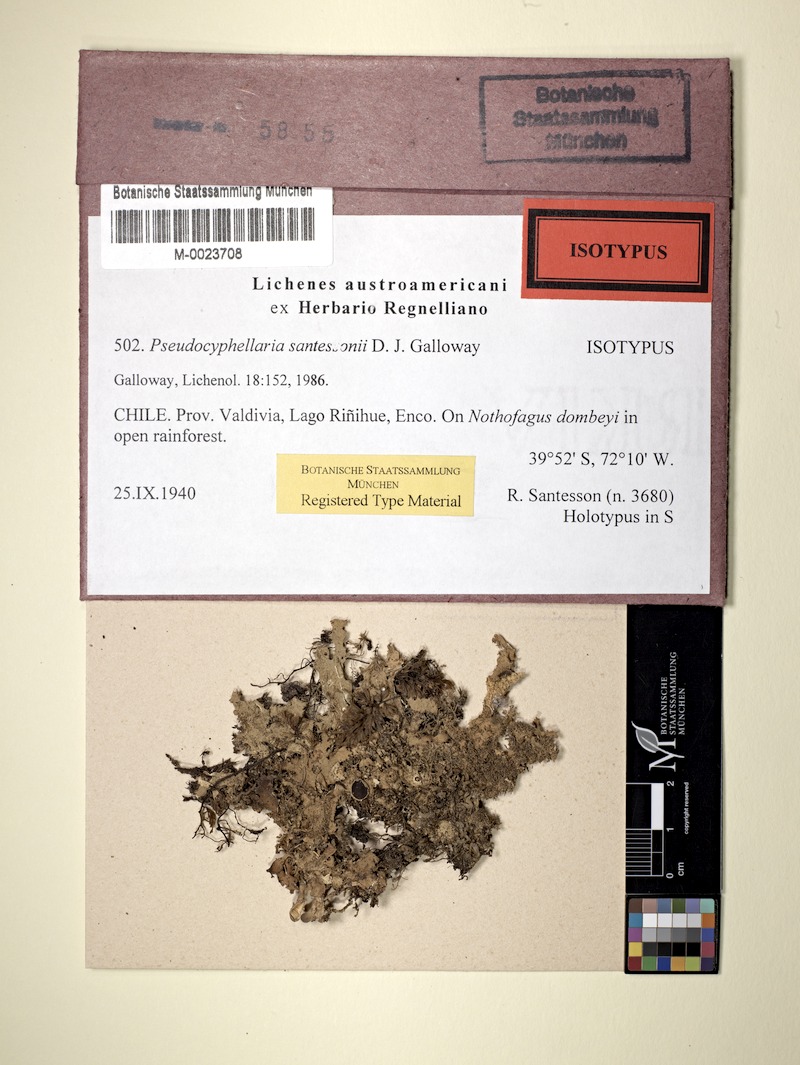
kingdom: Fungi
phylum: Ascomycota
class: Lecanoromycetes
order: Peltigerales
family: Lobariaceae
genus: Pseudocyphellaria
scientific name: Pseudocyphellaria santessonii
